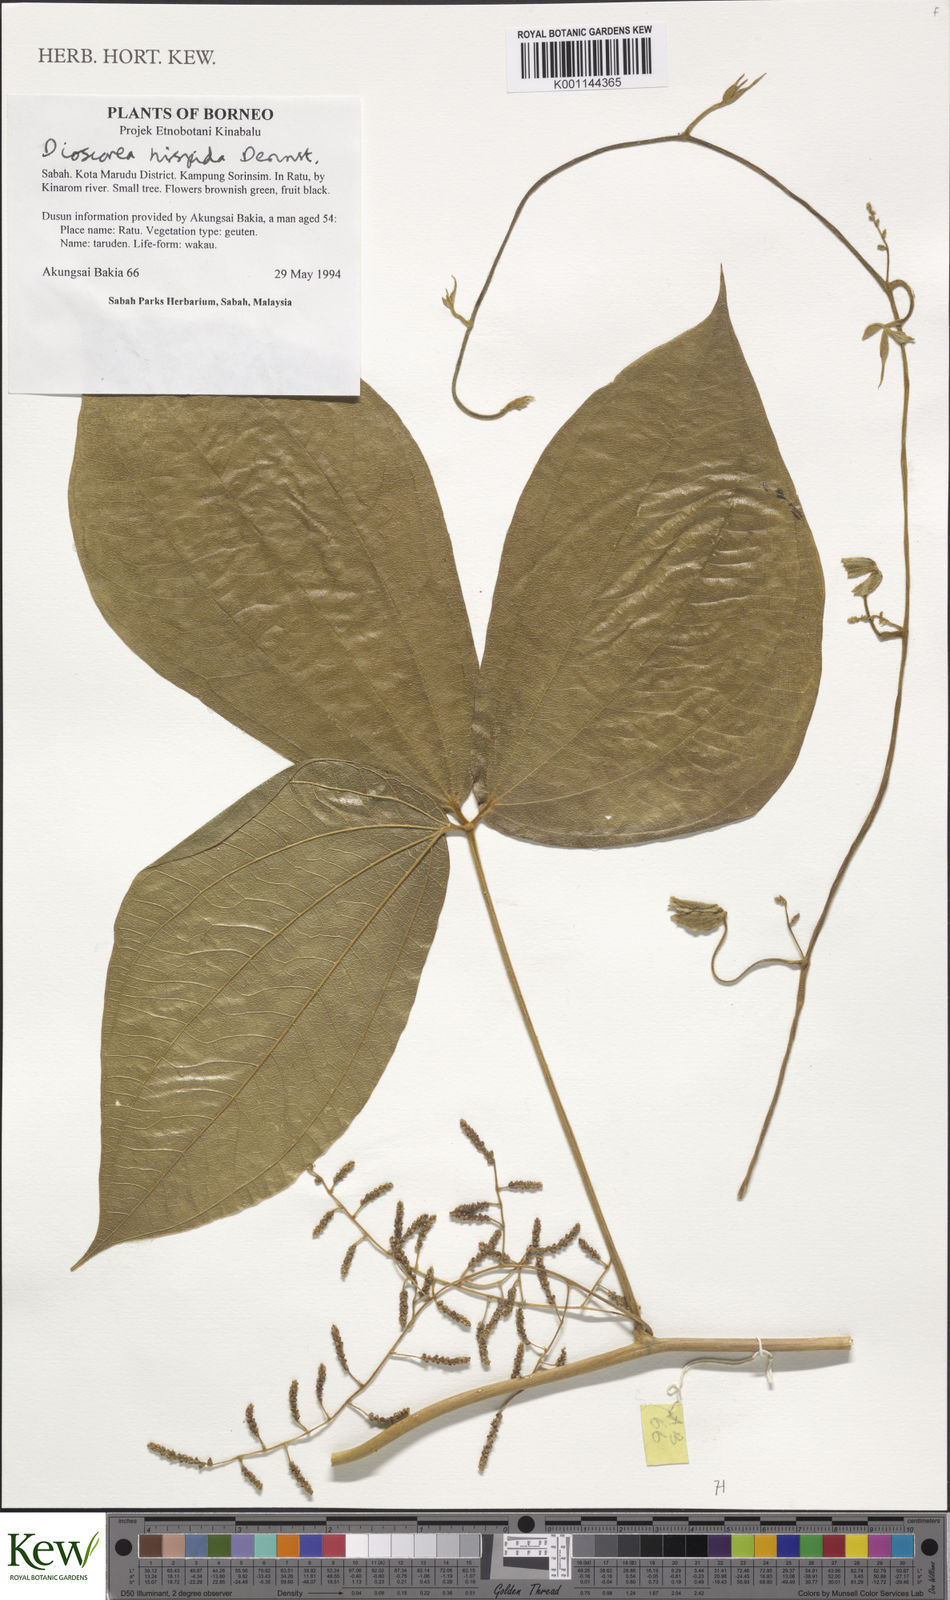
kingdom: Plantae
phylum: Tracheophyta
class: Liliopsida
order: Dioscoreales
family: Dioscoreaceae
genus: Dioscorea
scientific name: Dioscorea hispida
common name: Asiatic bitter yam
